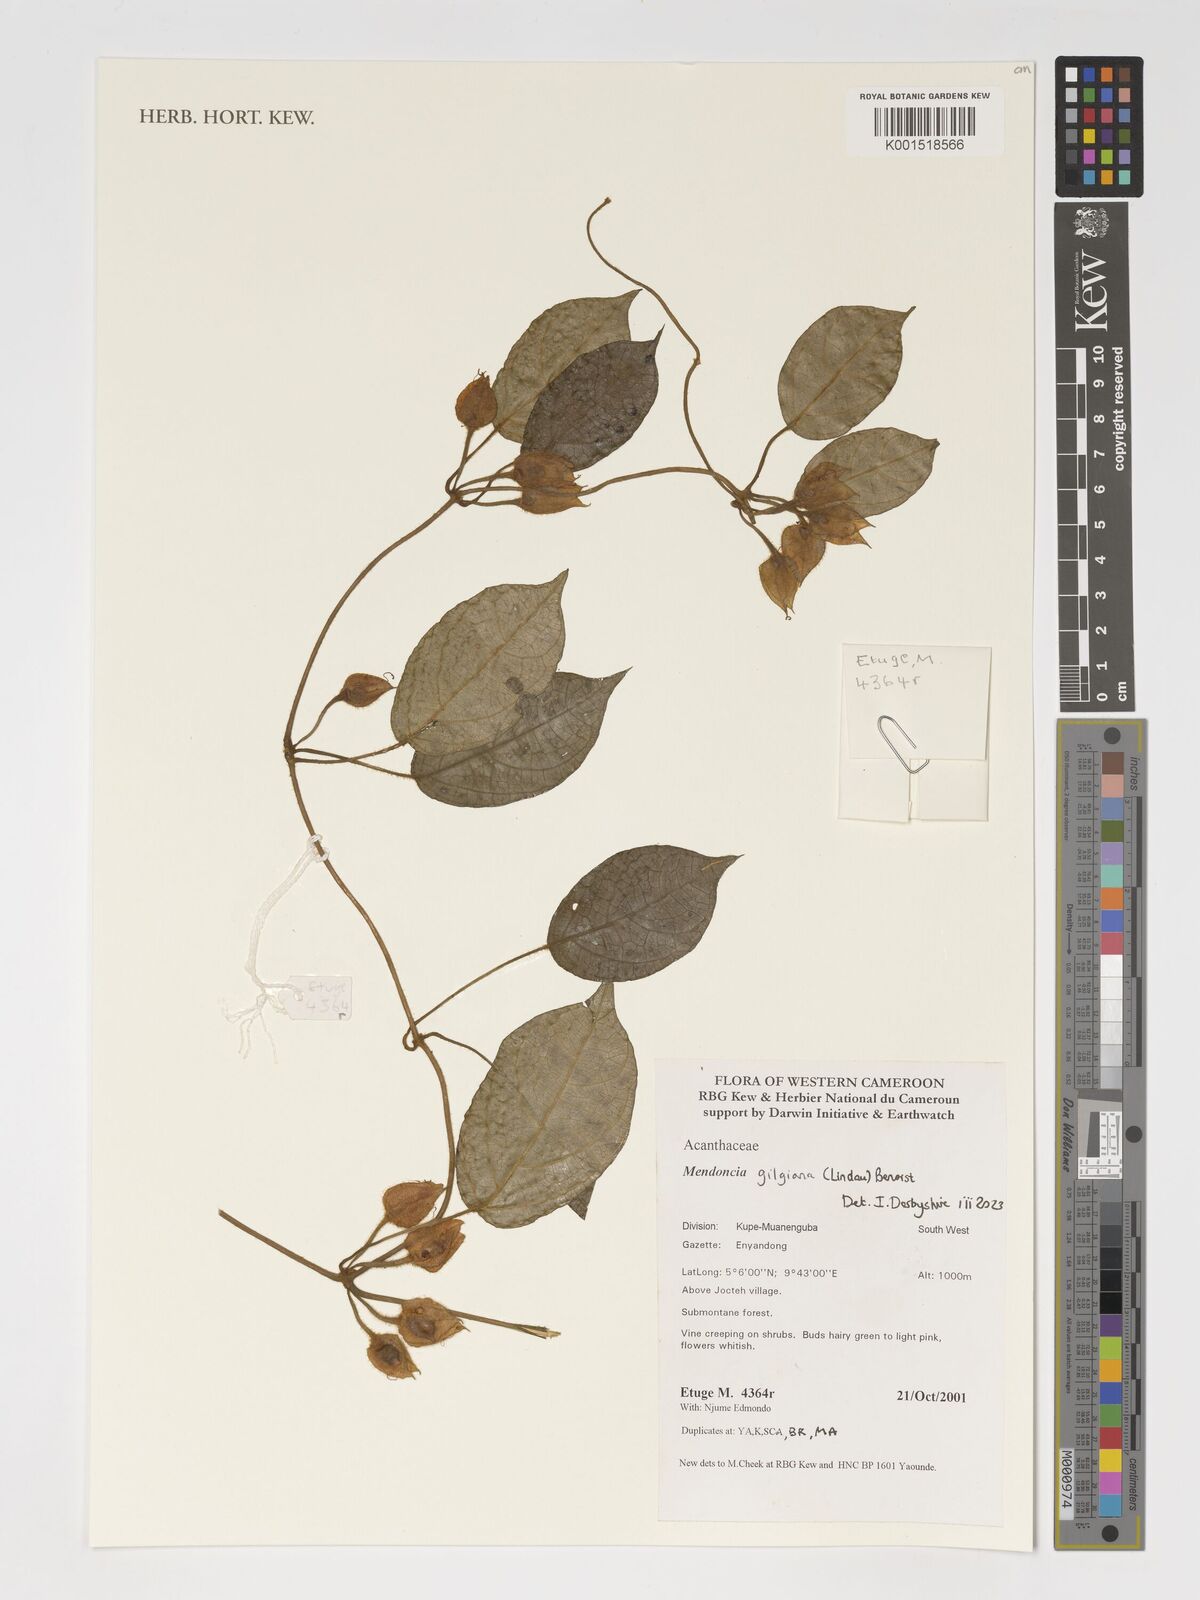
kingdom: Plantae
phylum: Tracheophyta
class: Magnoliopsida
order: Lamiales
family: Acanthaceae
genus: Mendoncia
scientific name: Mendoncia gilgiana
